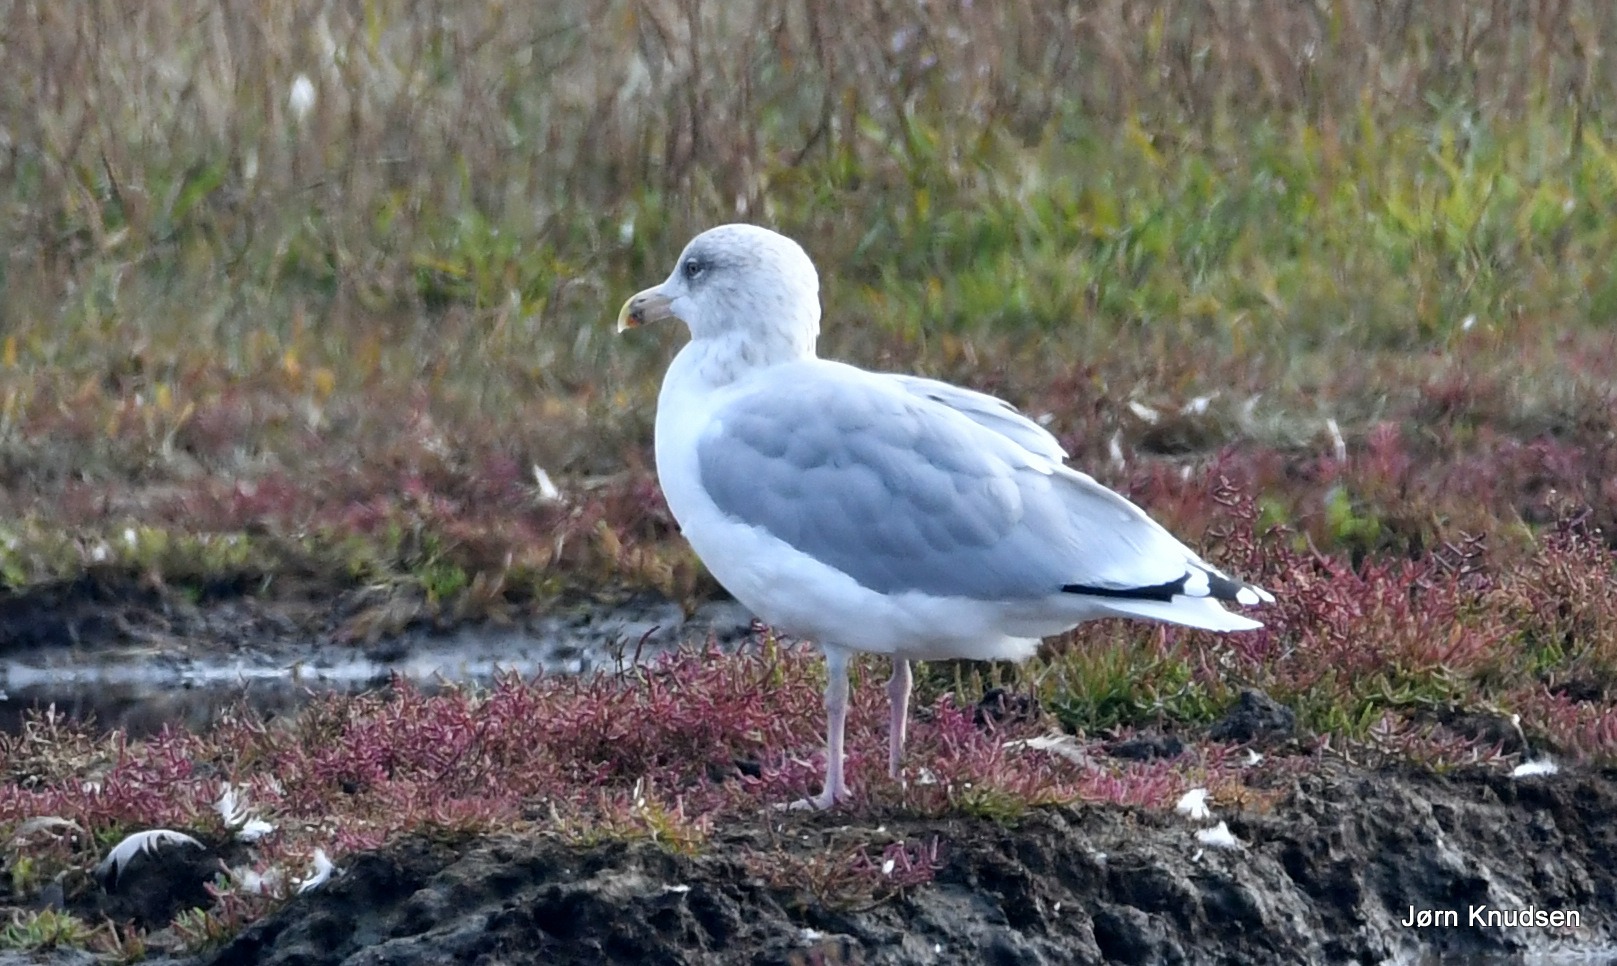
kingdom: Animalia
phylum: Chordata
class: Aves
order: Charadriiformes
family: Laridae
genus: Larus
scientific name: Larus argentatus
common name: Sølvmåge
